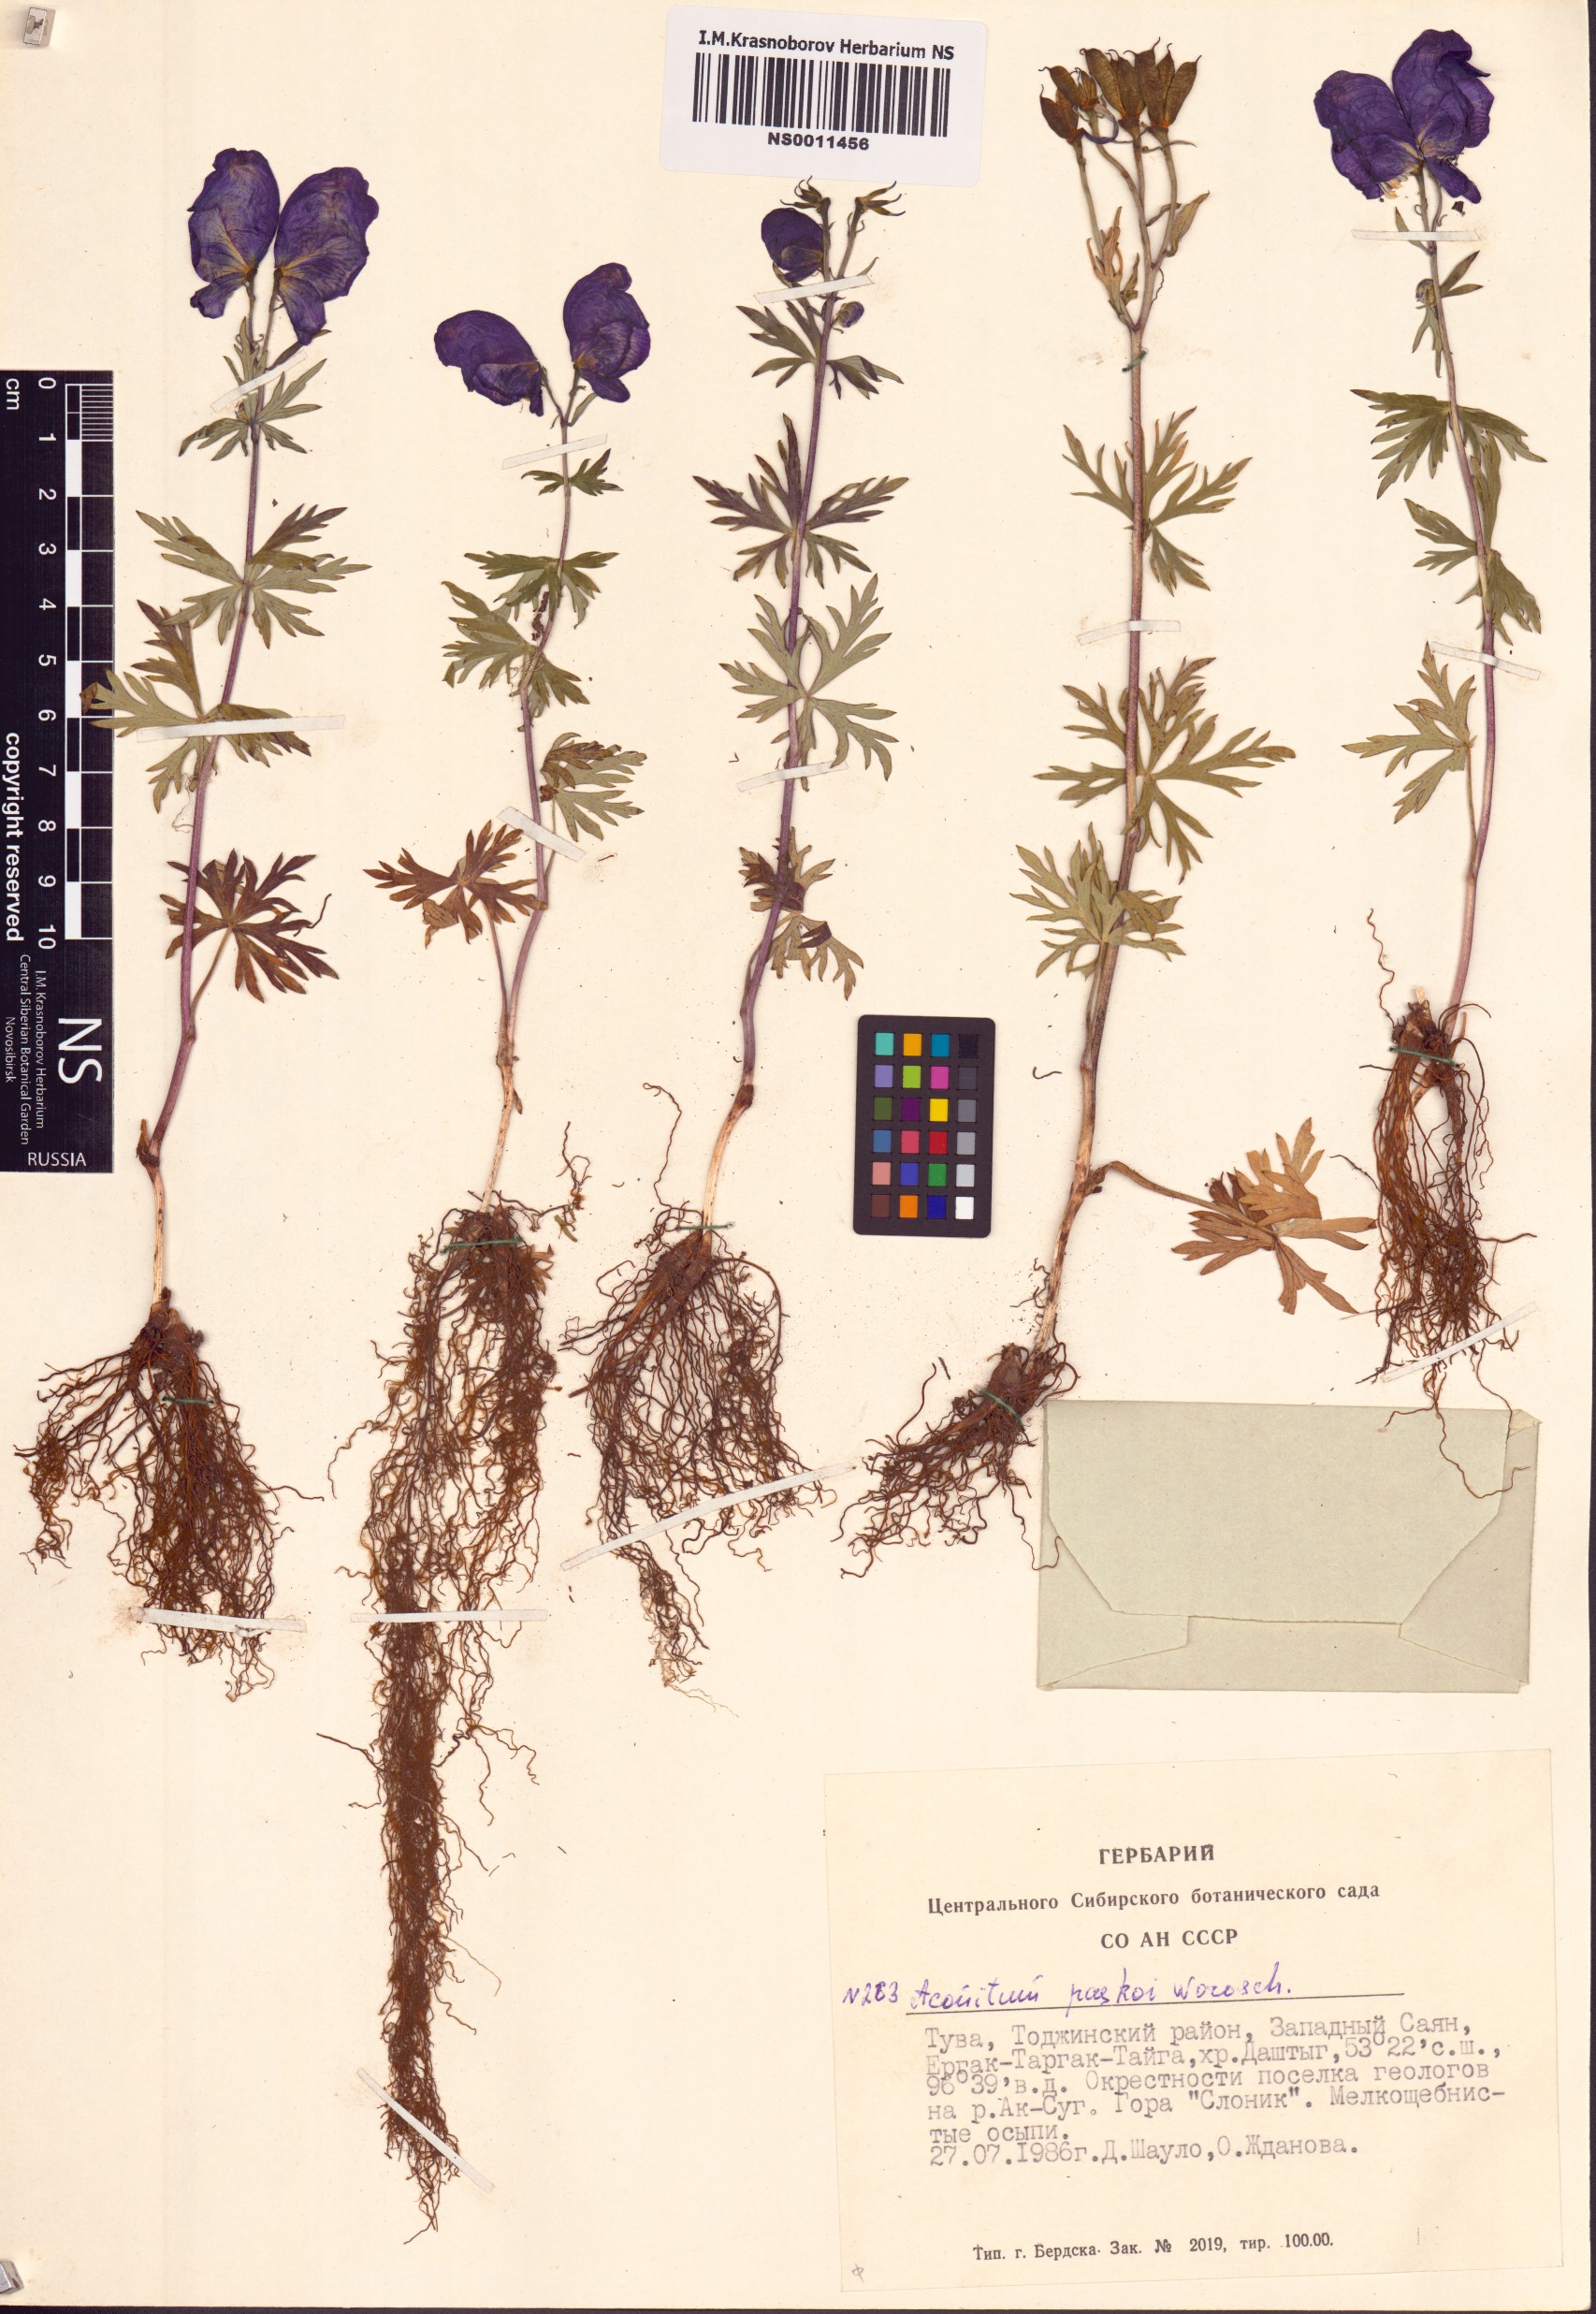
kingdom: Plantae
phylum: Tracheophyta
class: Magnoliopsida
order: Ranunculales
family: Ranunculaceae
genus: Aconitum
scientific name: Aconitum pascoi
